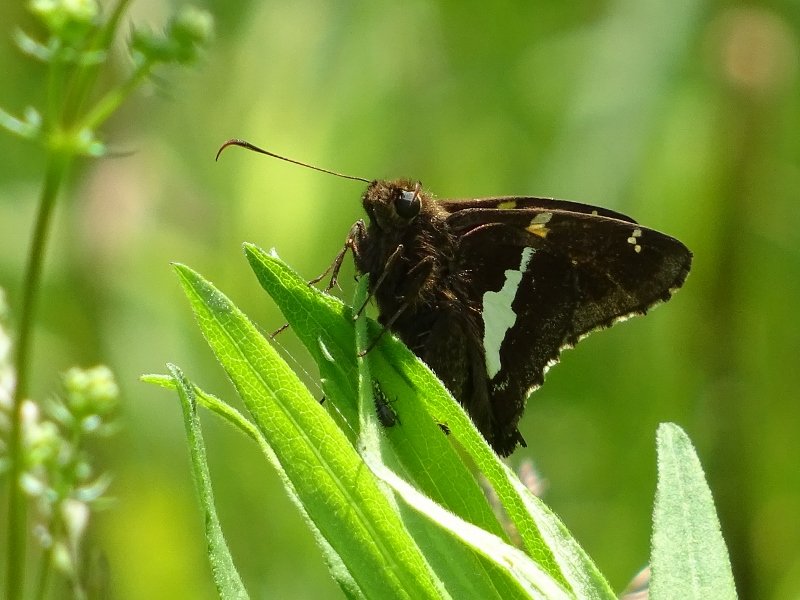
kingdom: Animalia
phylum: Arthropoda
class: Insecta
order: Lepidoptera
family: Hesperiidae
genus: Epargyreus
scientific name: Epargyreus clarus
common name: Silver-spotted Skipper
